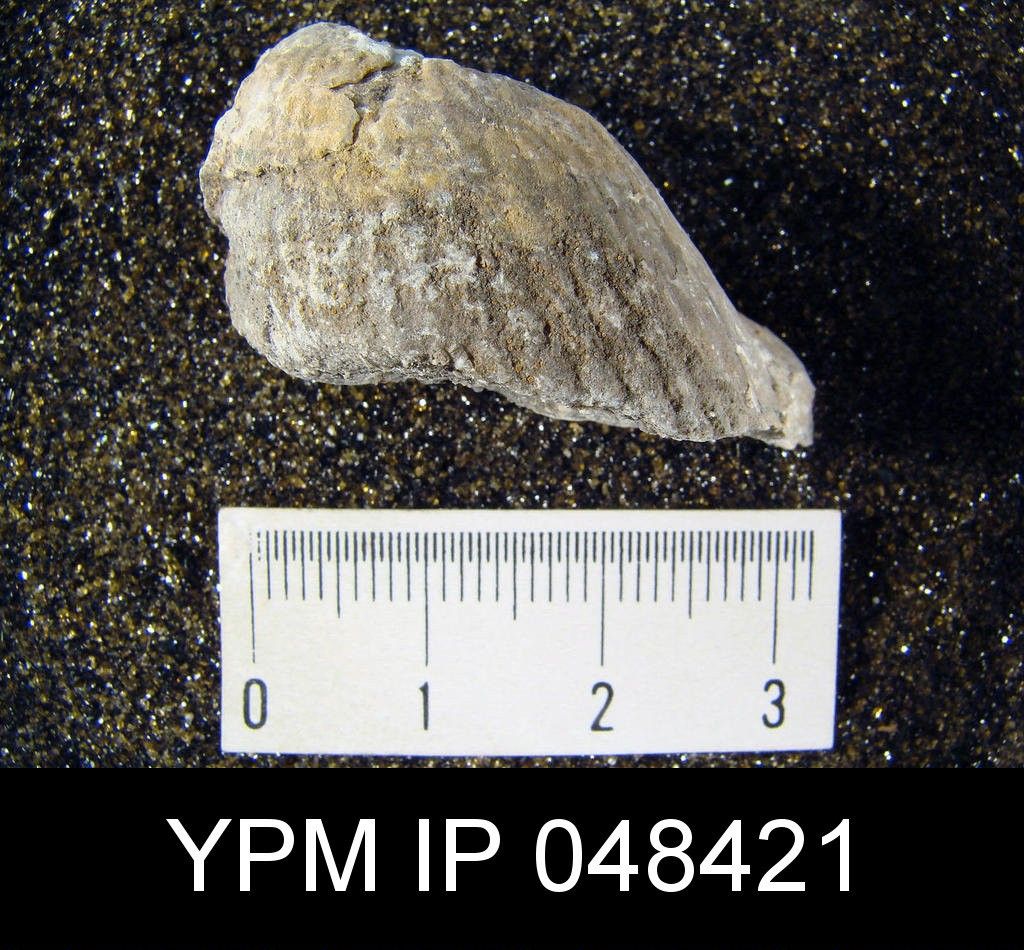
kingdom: Animalia
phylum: Brachiopoda
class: Rhynchonellata
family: Pentameridae
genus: Rhipidium
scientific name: Rhipidium
